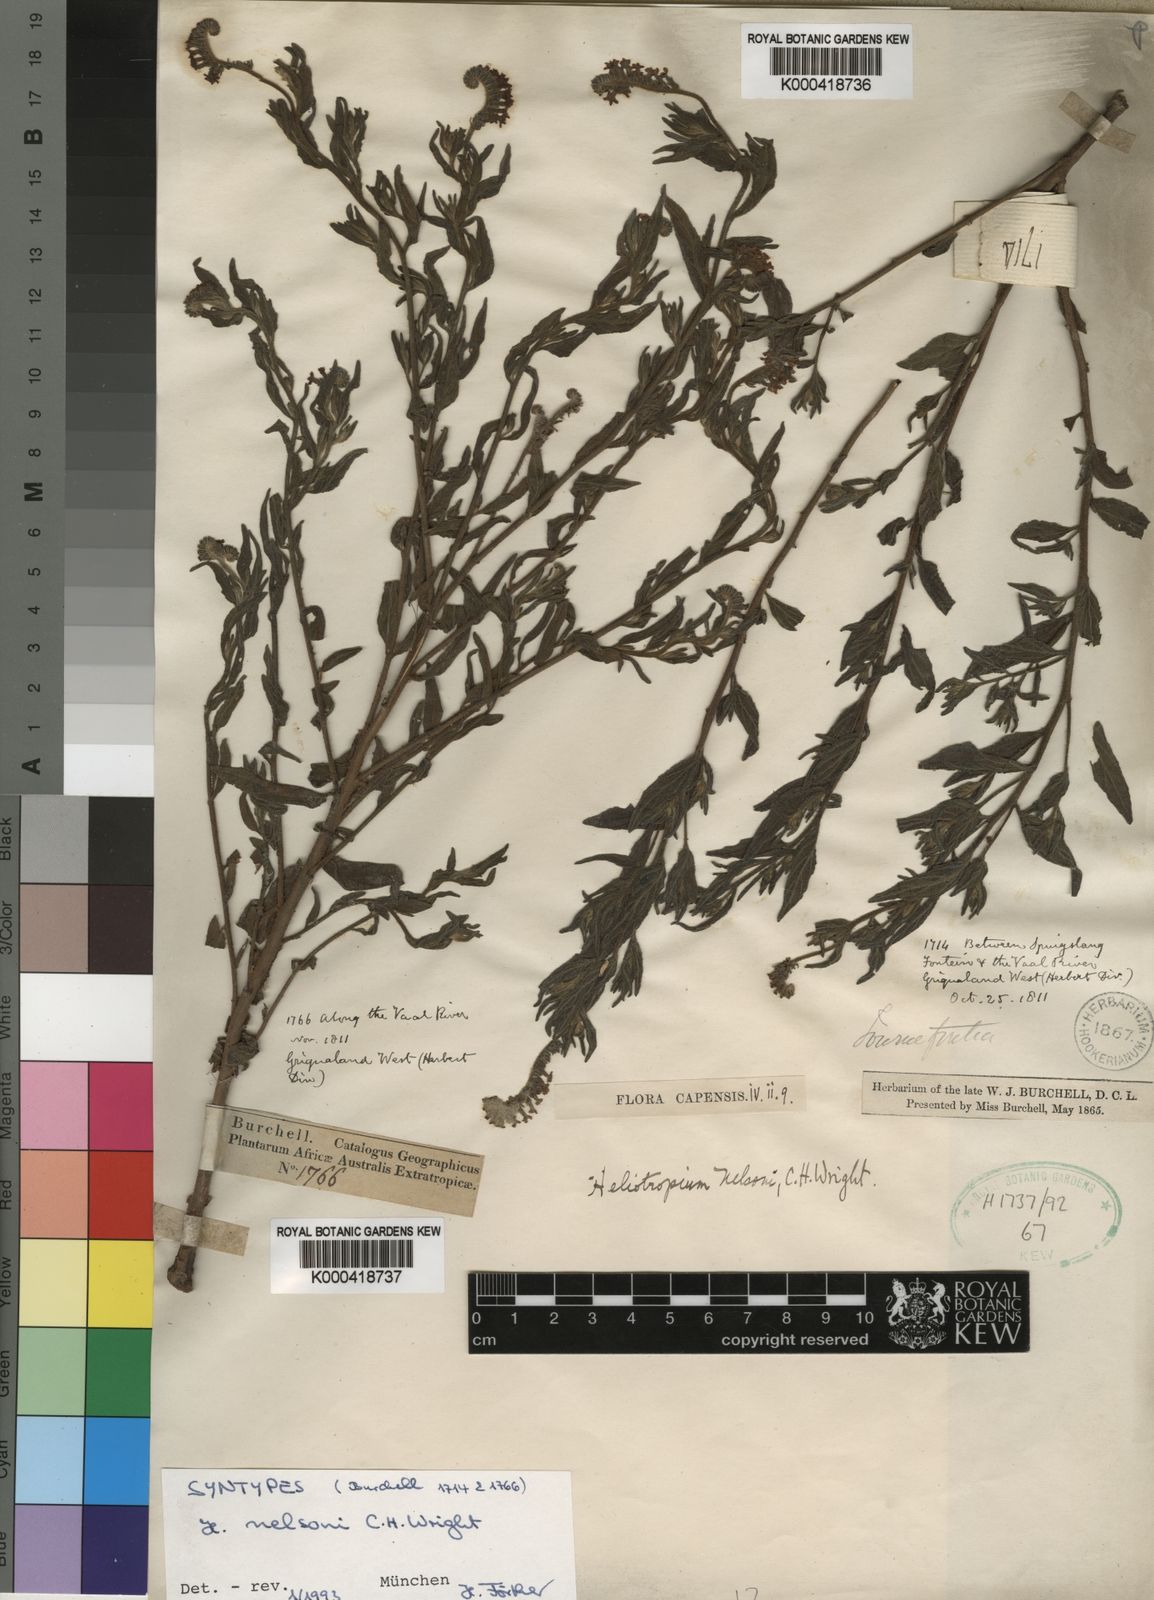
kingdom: Plantae
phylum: Tracheophyta
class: Magnoliopsida
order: Boraginales
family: Heliotropiaceae
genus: Heliotropium
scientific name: Heliotropium steudneri
